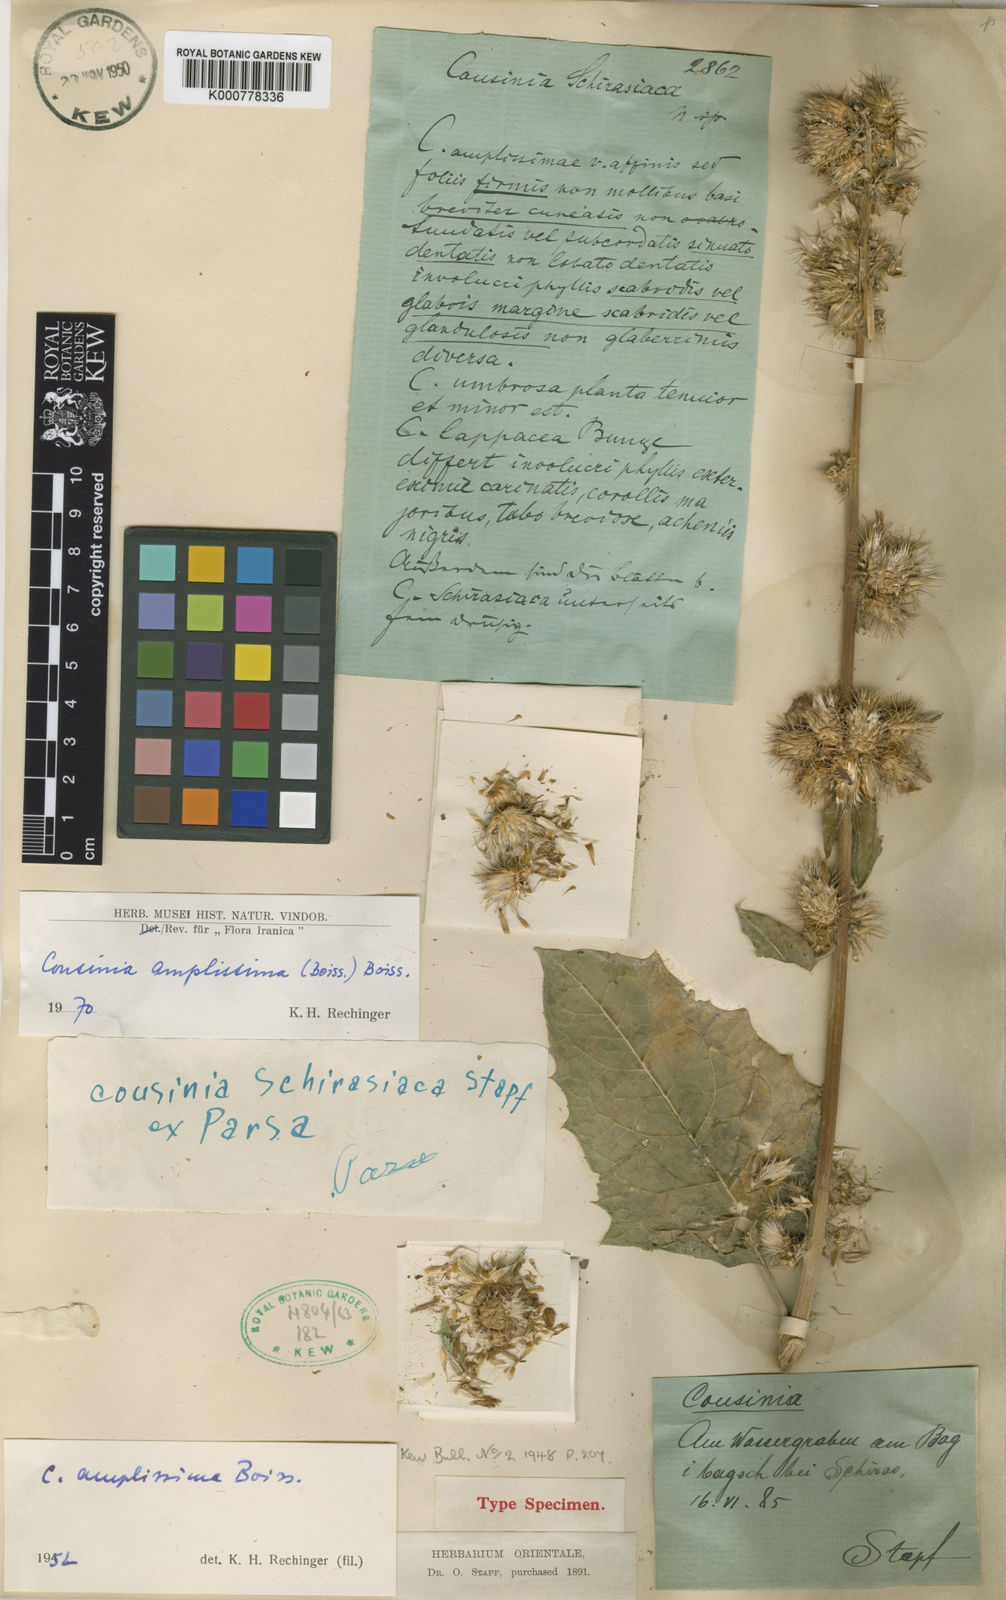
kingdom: Plantae
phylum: Tracheophyta
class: Magnoliopsida
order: Asterales
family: Asteraceae
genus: Arctium
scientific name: Arctium amplissimum
